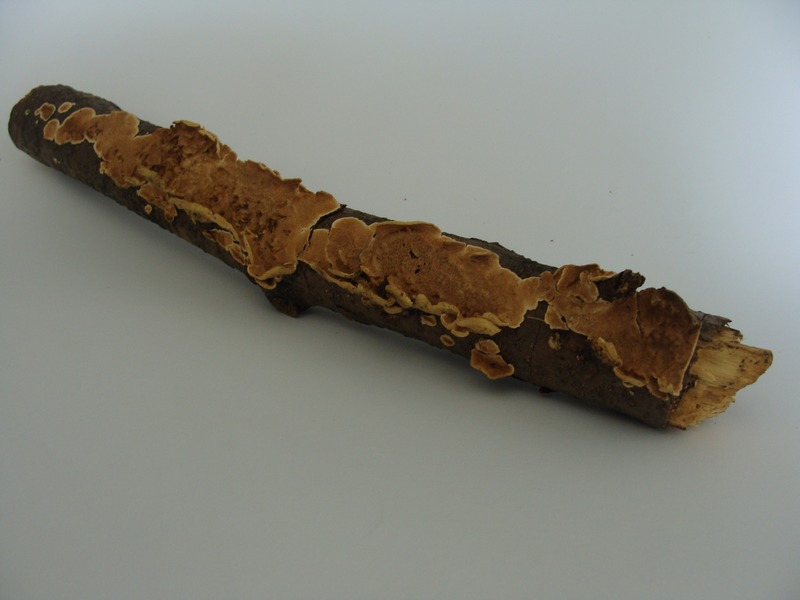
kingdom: Plantae
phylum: Tracheophyta
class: Magnoliopsida
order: Fagales
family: Betulaceae
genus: Alnus
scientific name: Alnus
